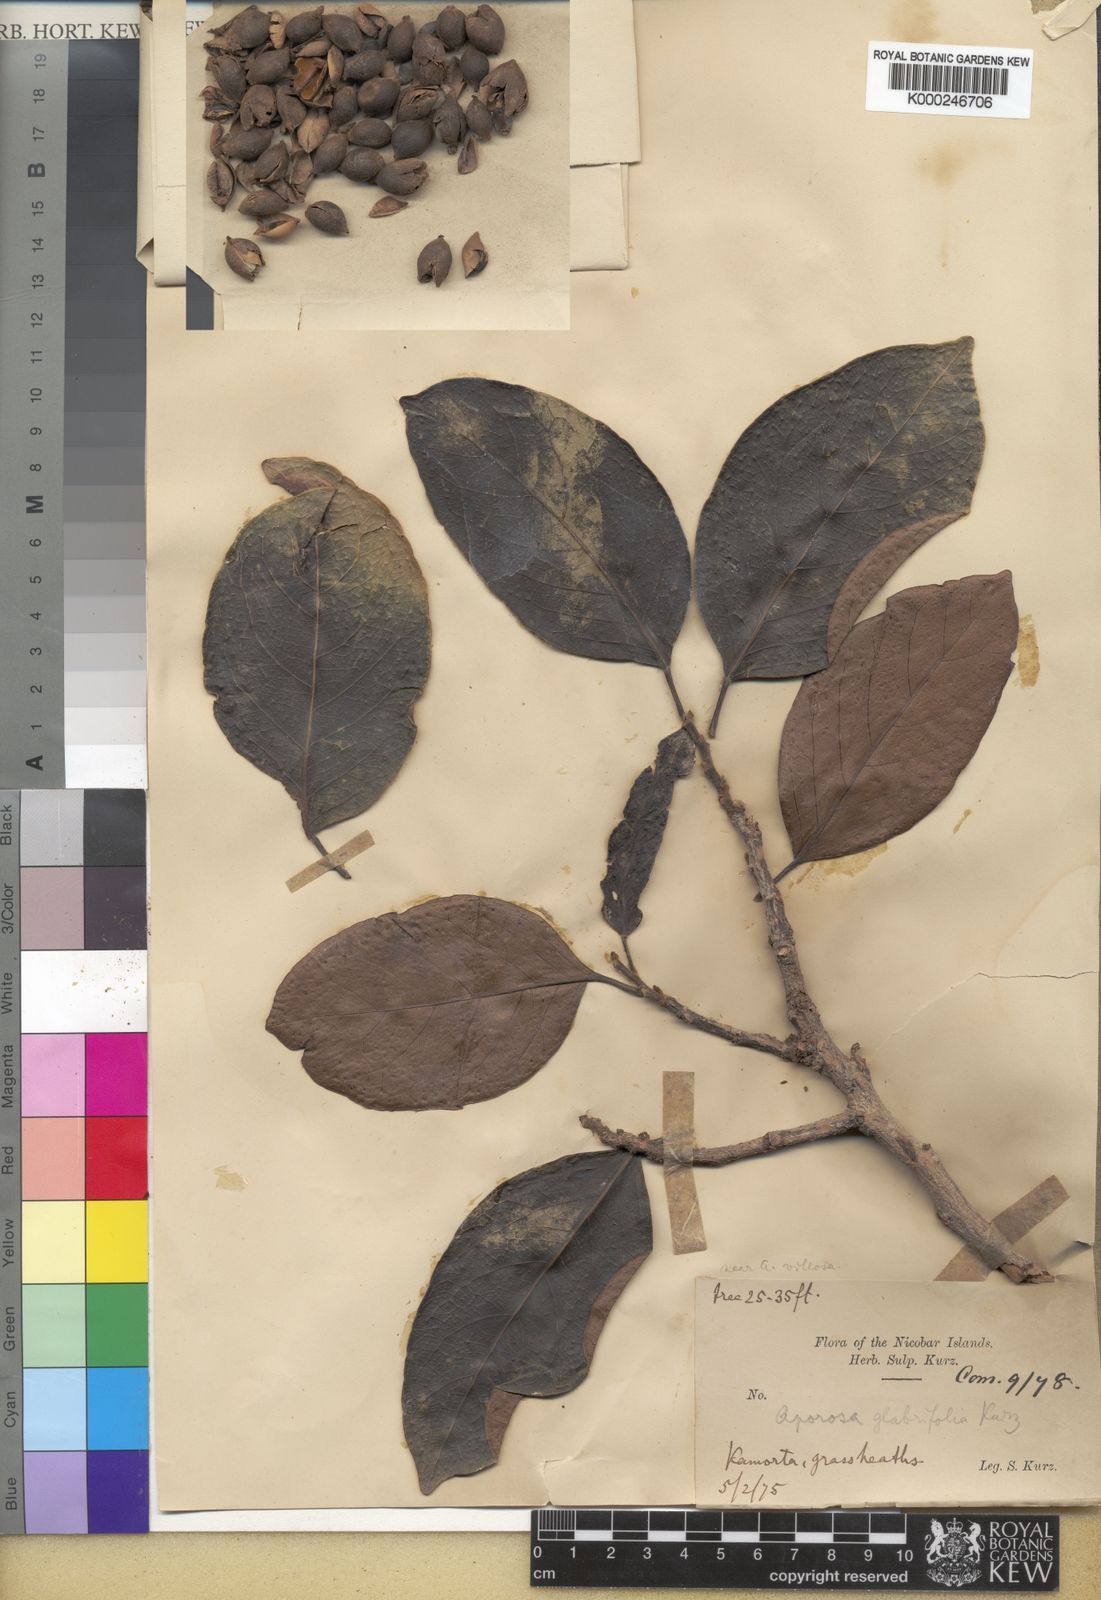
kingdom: Plantae
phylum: Tracheophyta
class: Magnoliopsida
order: Malpighiales
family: Phyllanthaceae
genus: Aporosa
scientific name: Aporosa villosa
